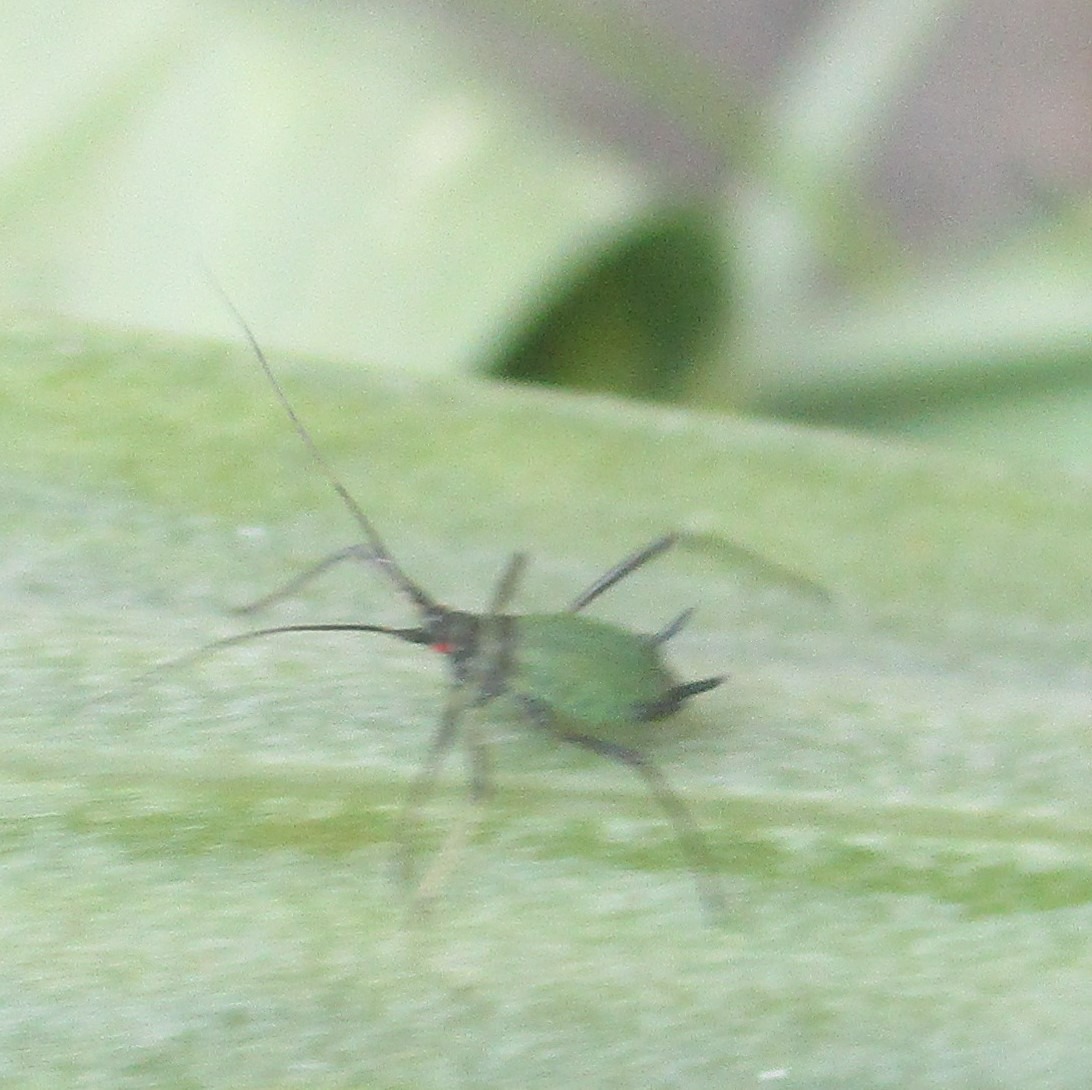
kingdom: Animalia
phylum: Arthropoda
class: Insecta
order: Hemiptera
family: Aphididae
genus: Megoura
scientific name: Megoura viciae
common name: Vikkebladlus
